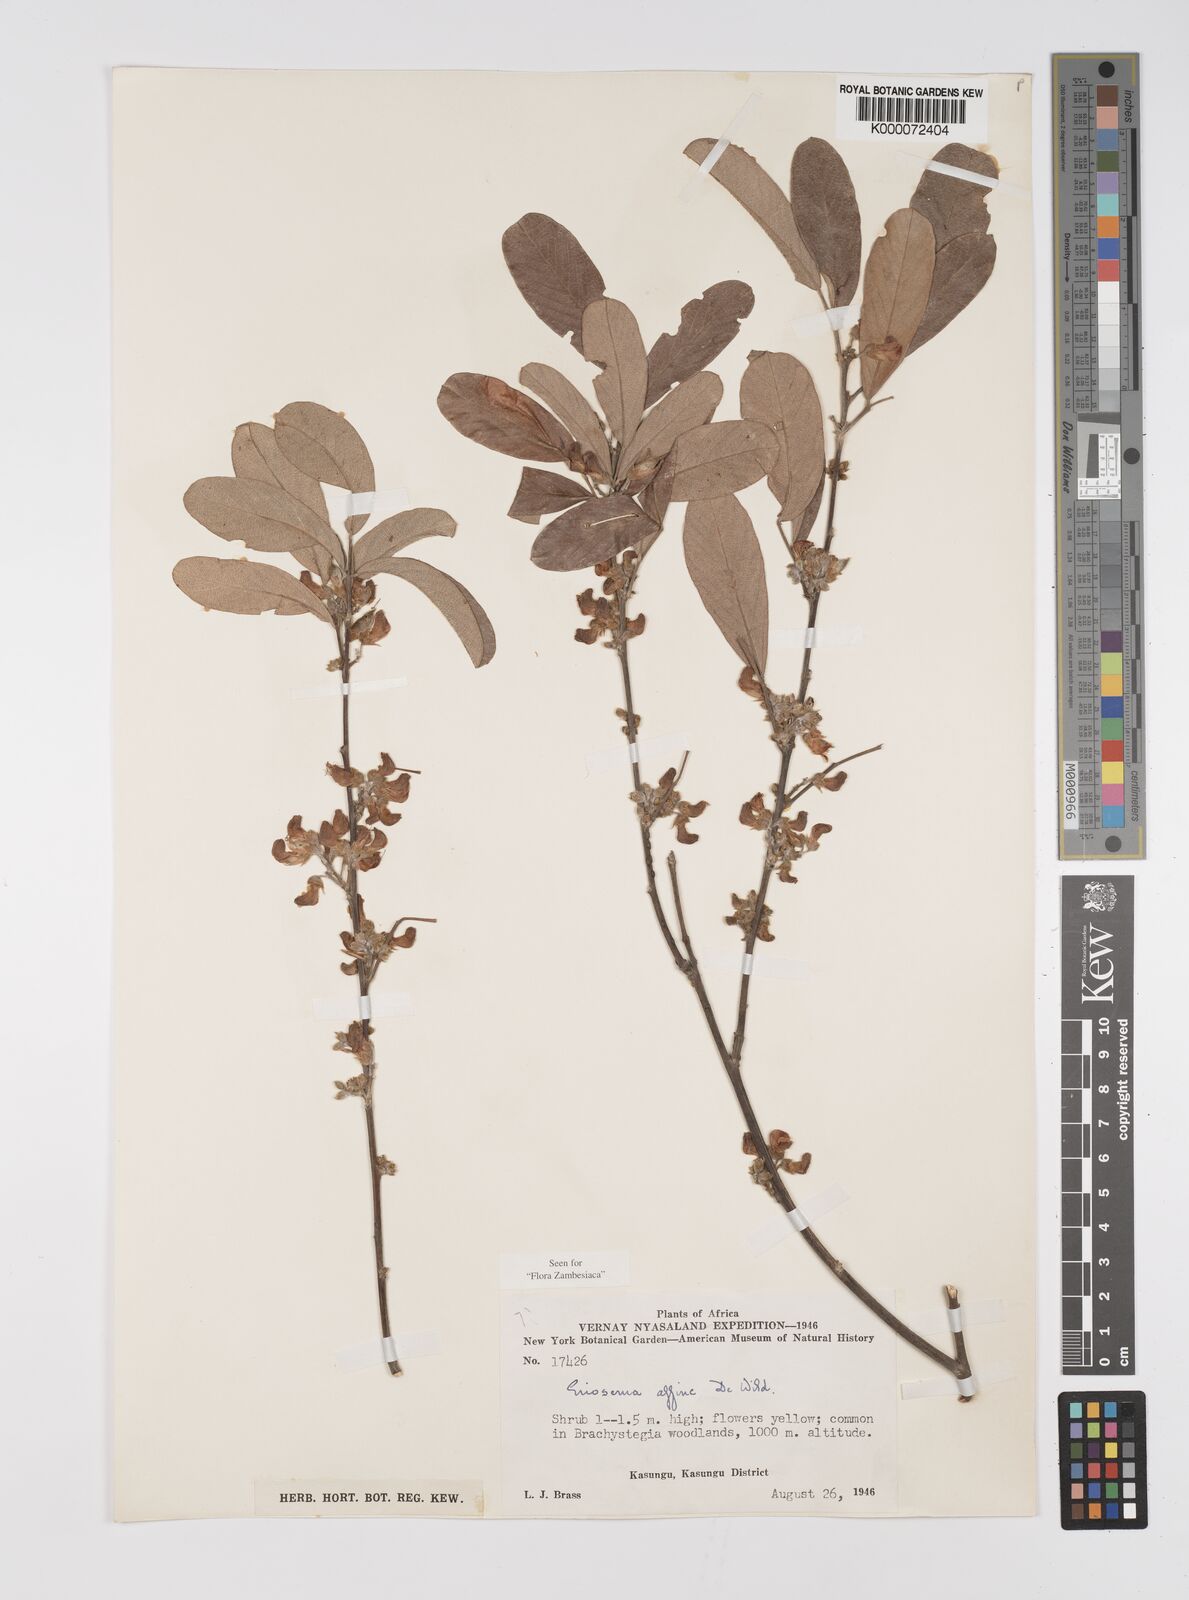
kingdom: Plantae
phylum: Tracheophyta
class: Magnoliopsida
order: Fabales
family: Fabaceae
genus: Eriosema
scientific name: Eriosema affine
